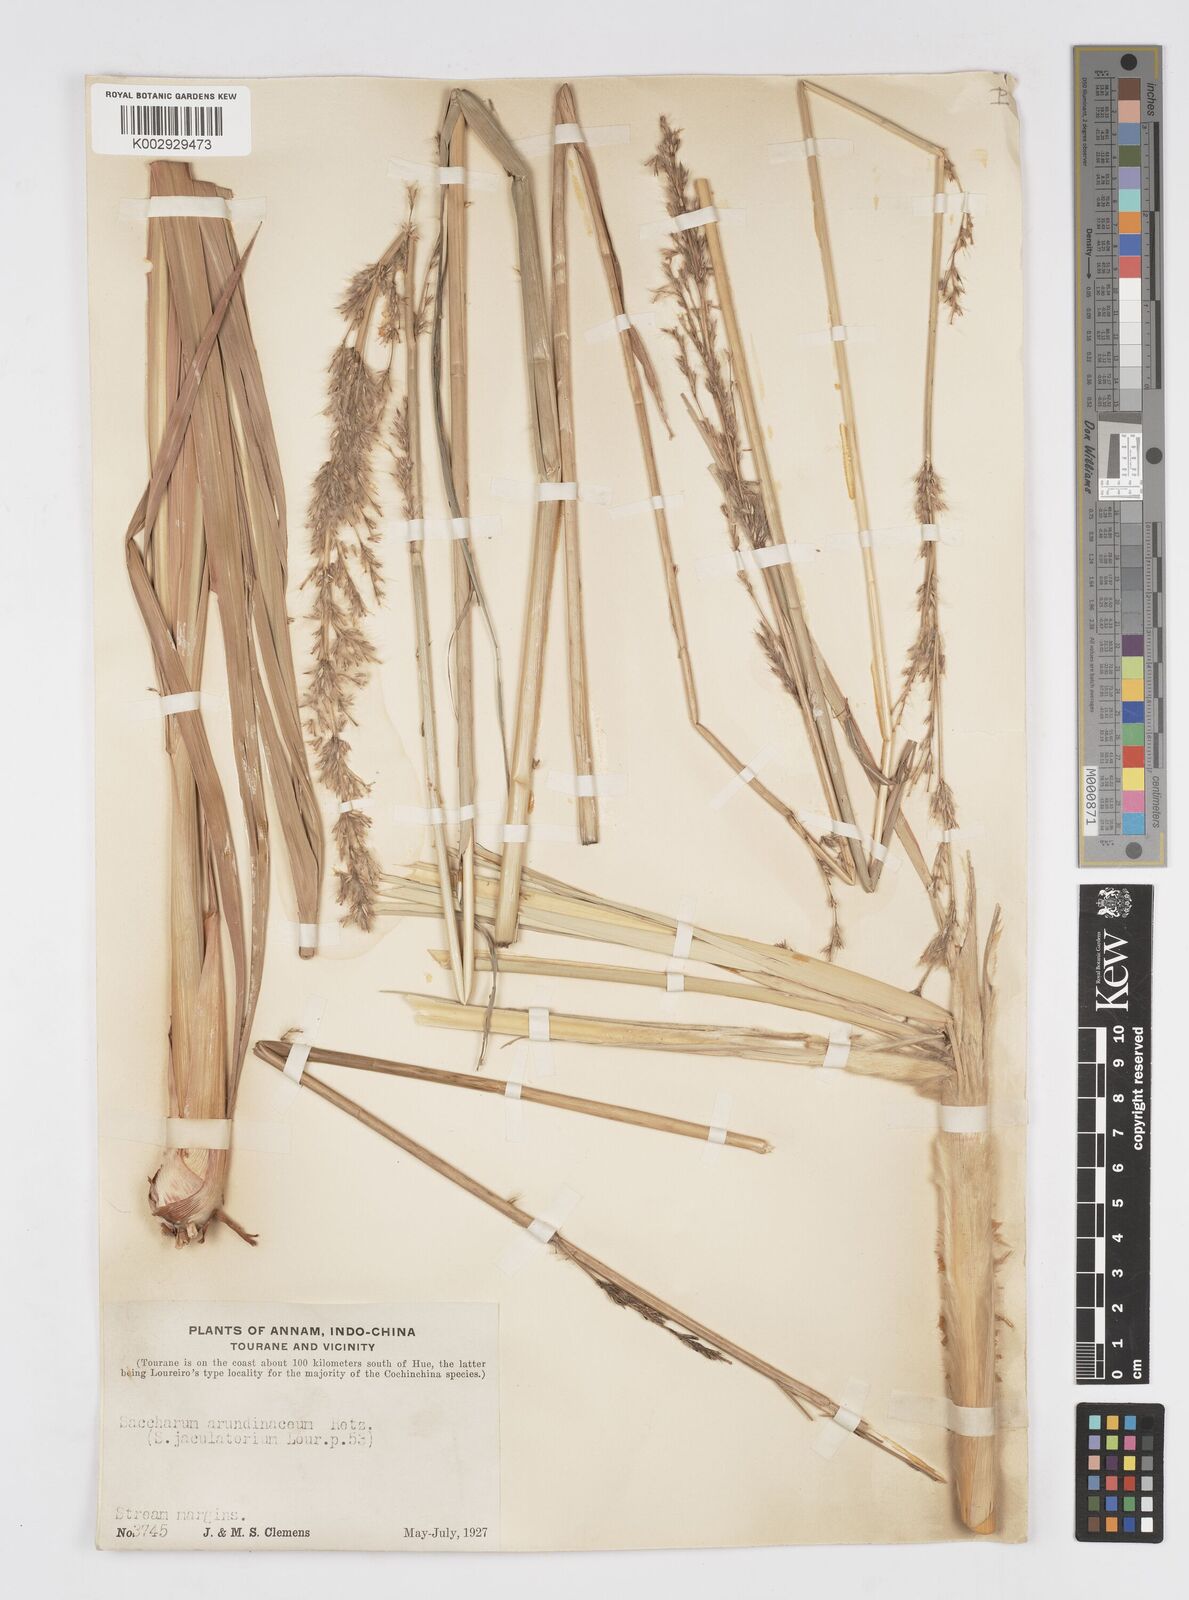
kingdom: Plantae
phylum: Tracheophyta
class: Liliopsida
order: Poales
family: Poaceae
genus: Tripidium
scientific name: Tripidium arundinaceum
